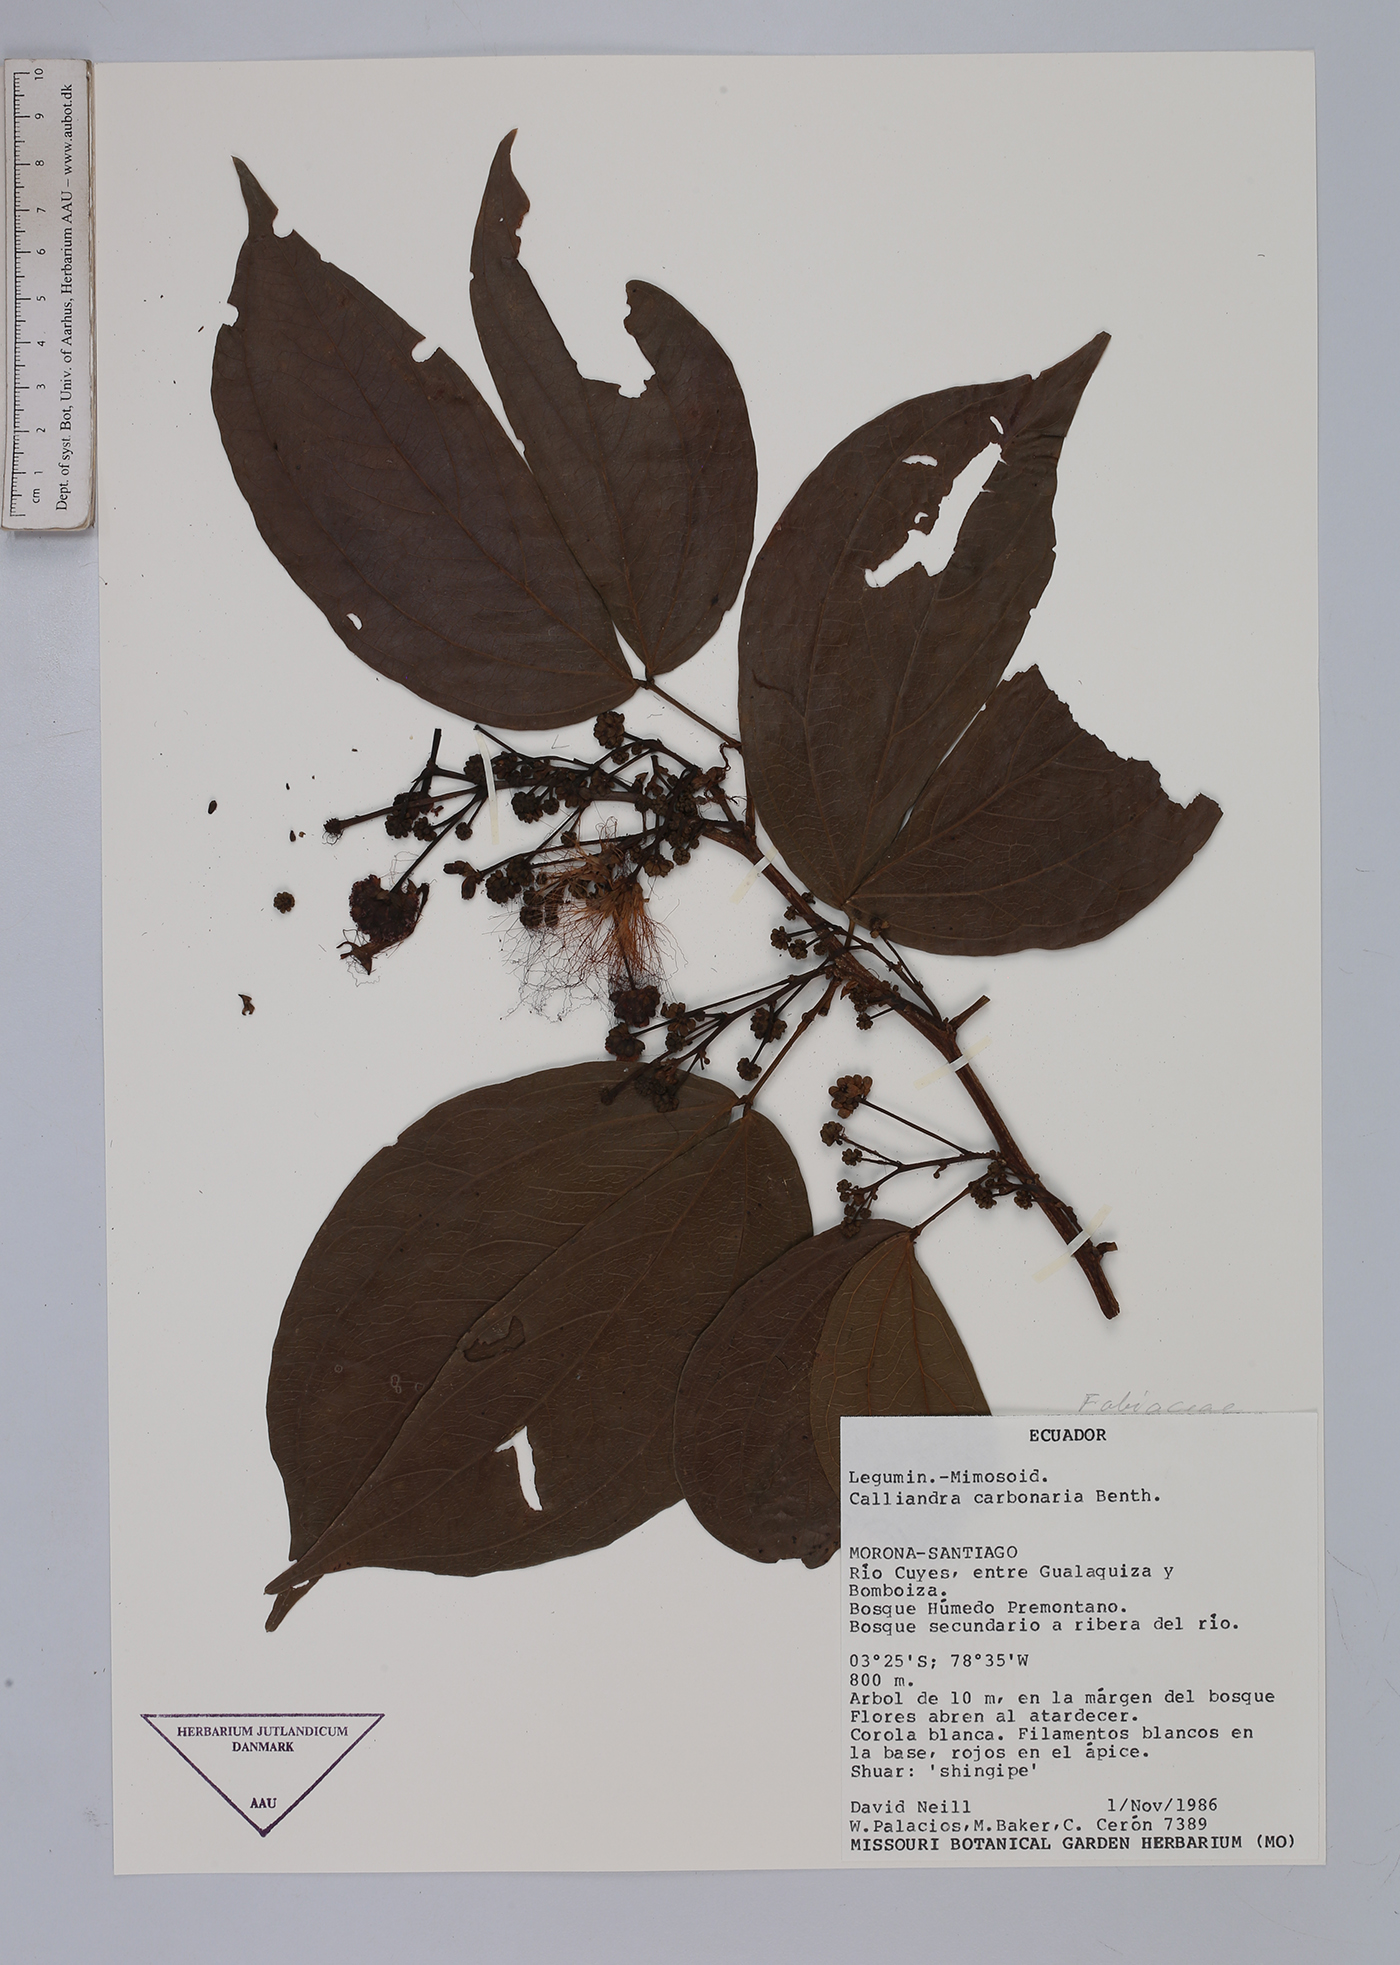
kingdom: Plantae
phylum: Tracheophyta
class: Magnoliopsida
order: Fabales
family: Fabaceae
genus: Calliandra
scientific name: Calliandra trinervia
